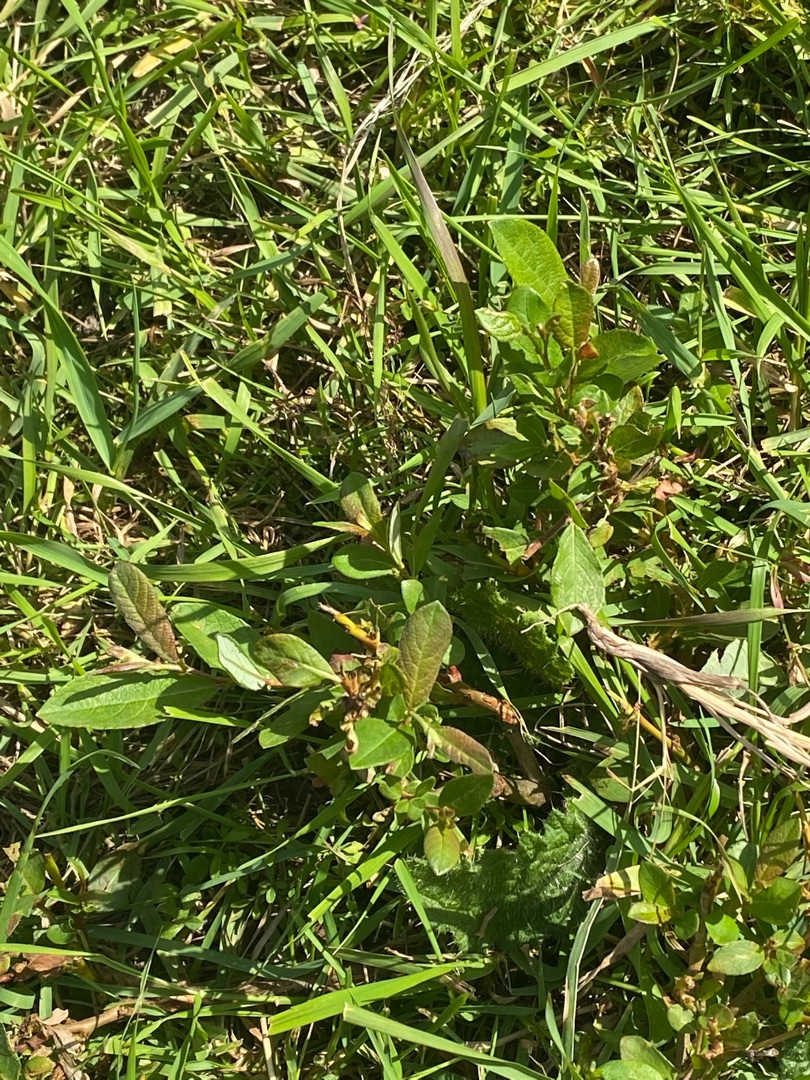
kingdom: Plantae
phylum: Tracheophyta
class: Magnoliopsida
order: Malpighiales
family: Salicaceae
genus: Salix
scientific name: Salix cinerea
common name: Grå-pil
